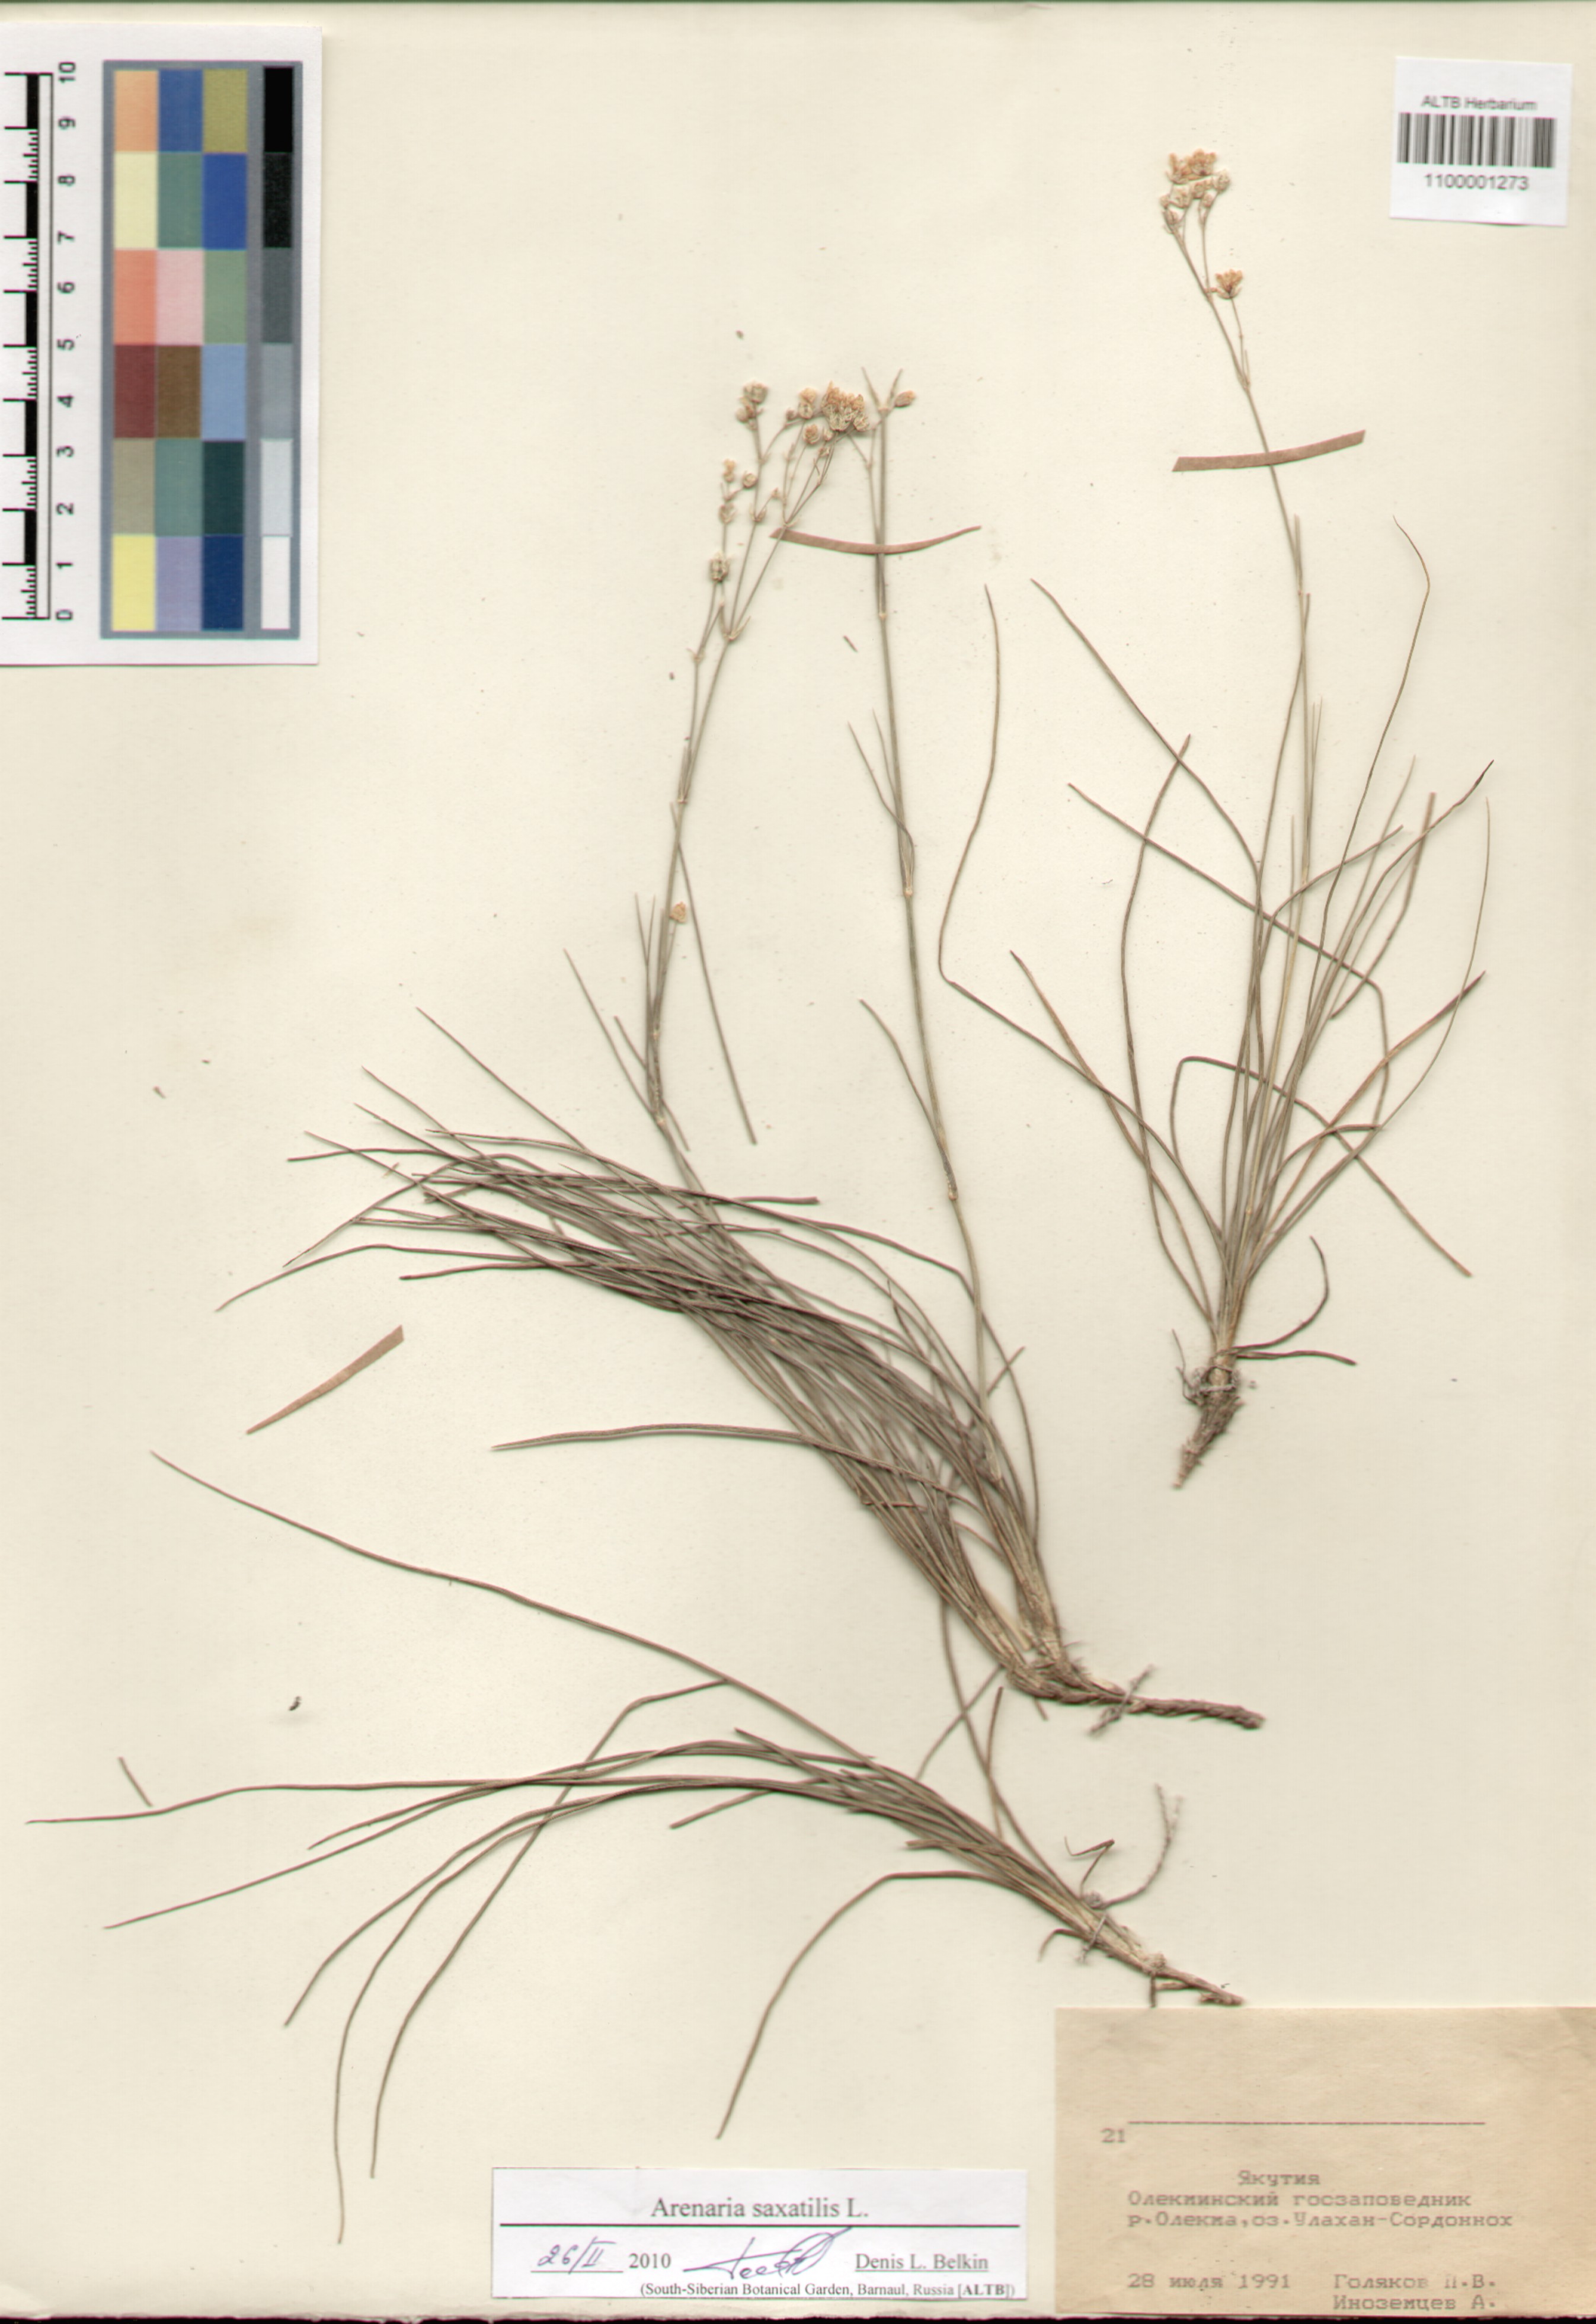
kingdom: Plantae
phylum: Tracheophyta
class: Magnoliopsida
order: Caryophyllales
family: Caryophyllaceae
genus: Eremogone
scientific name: Eremogone saxatilis
